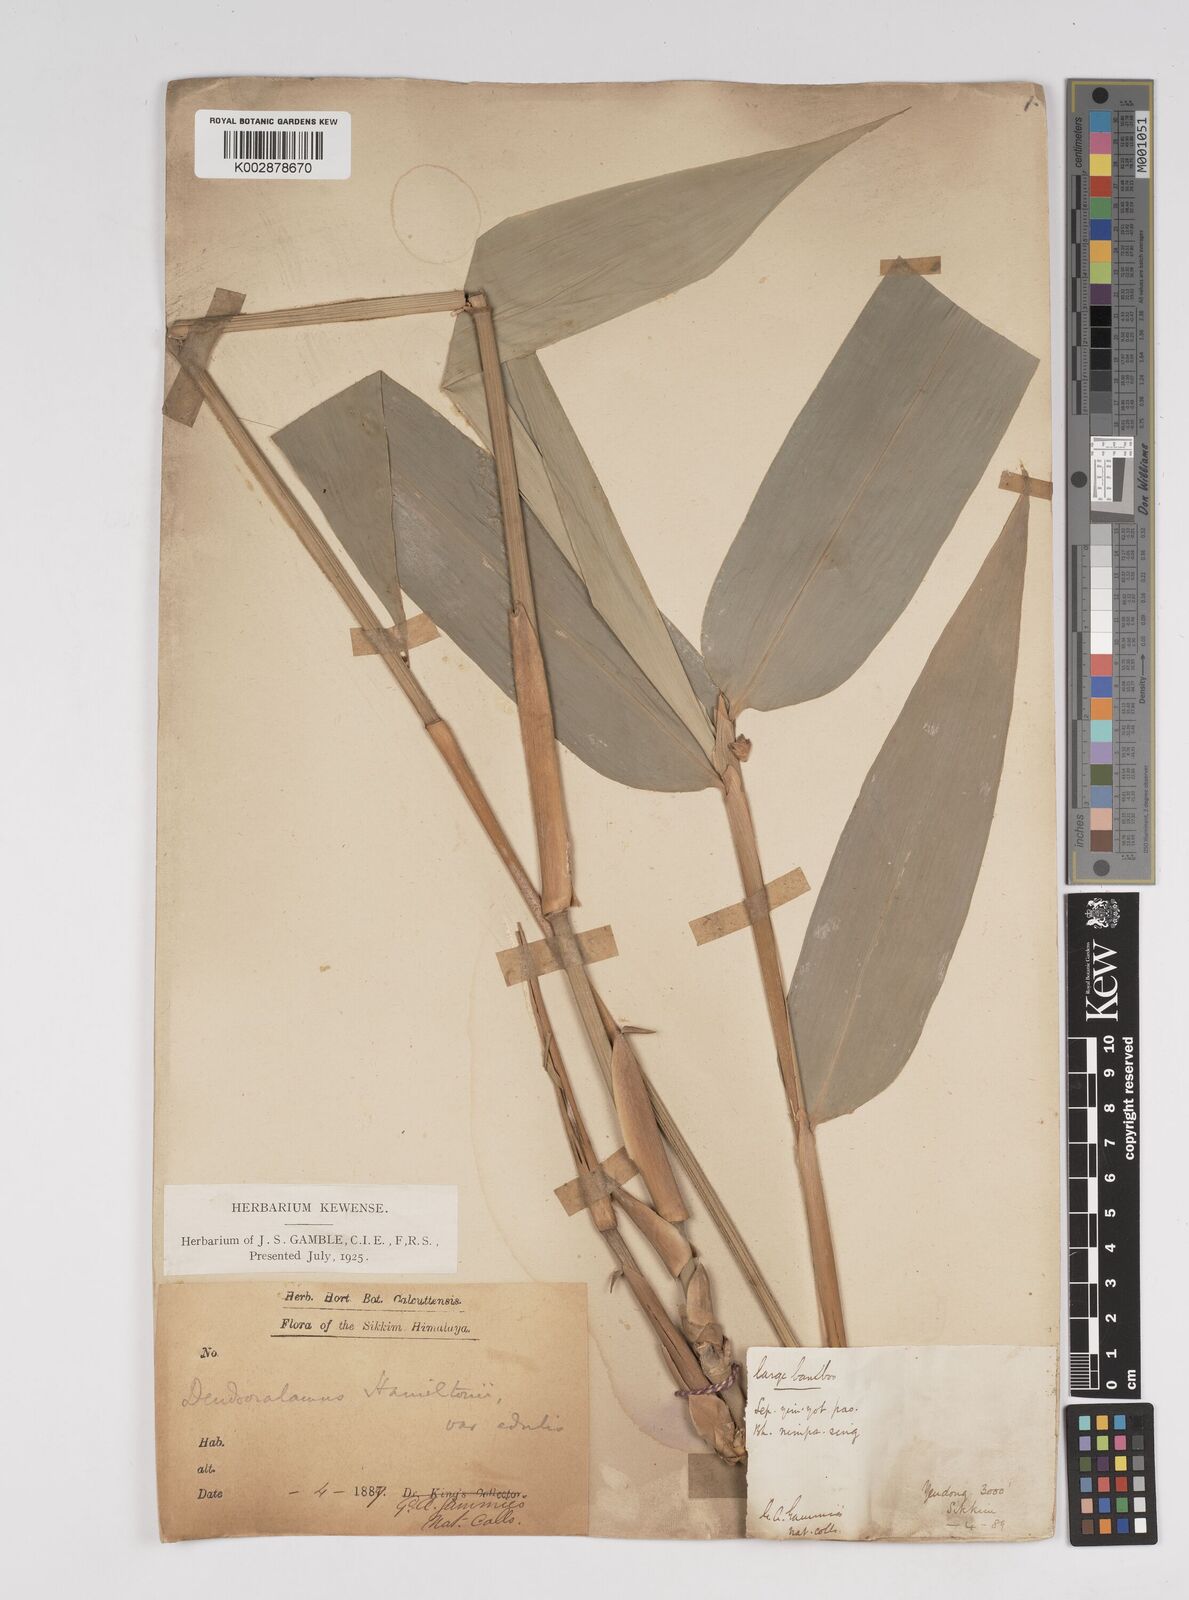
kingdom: Plantae
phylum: Tracheophyta
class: Liliopsida
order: Poales
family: Poaceae
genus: Dendrocalamus
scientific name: Dendrocalamus hamiltonii
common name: Tama bamboo
